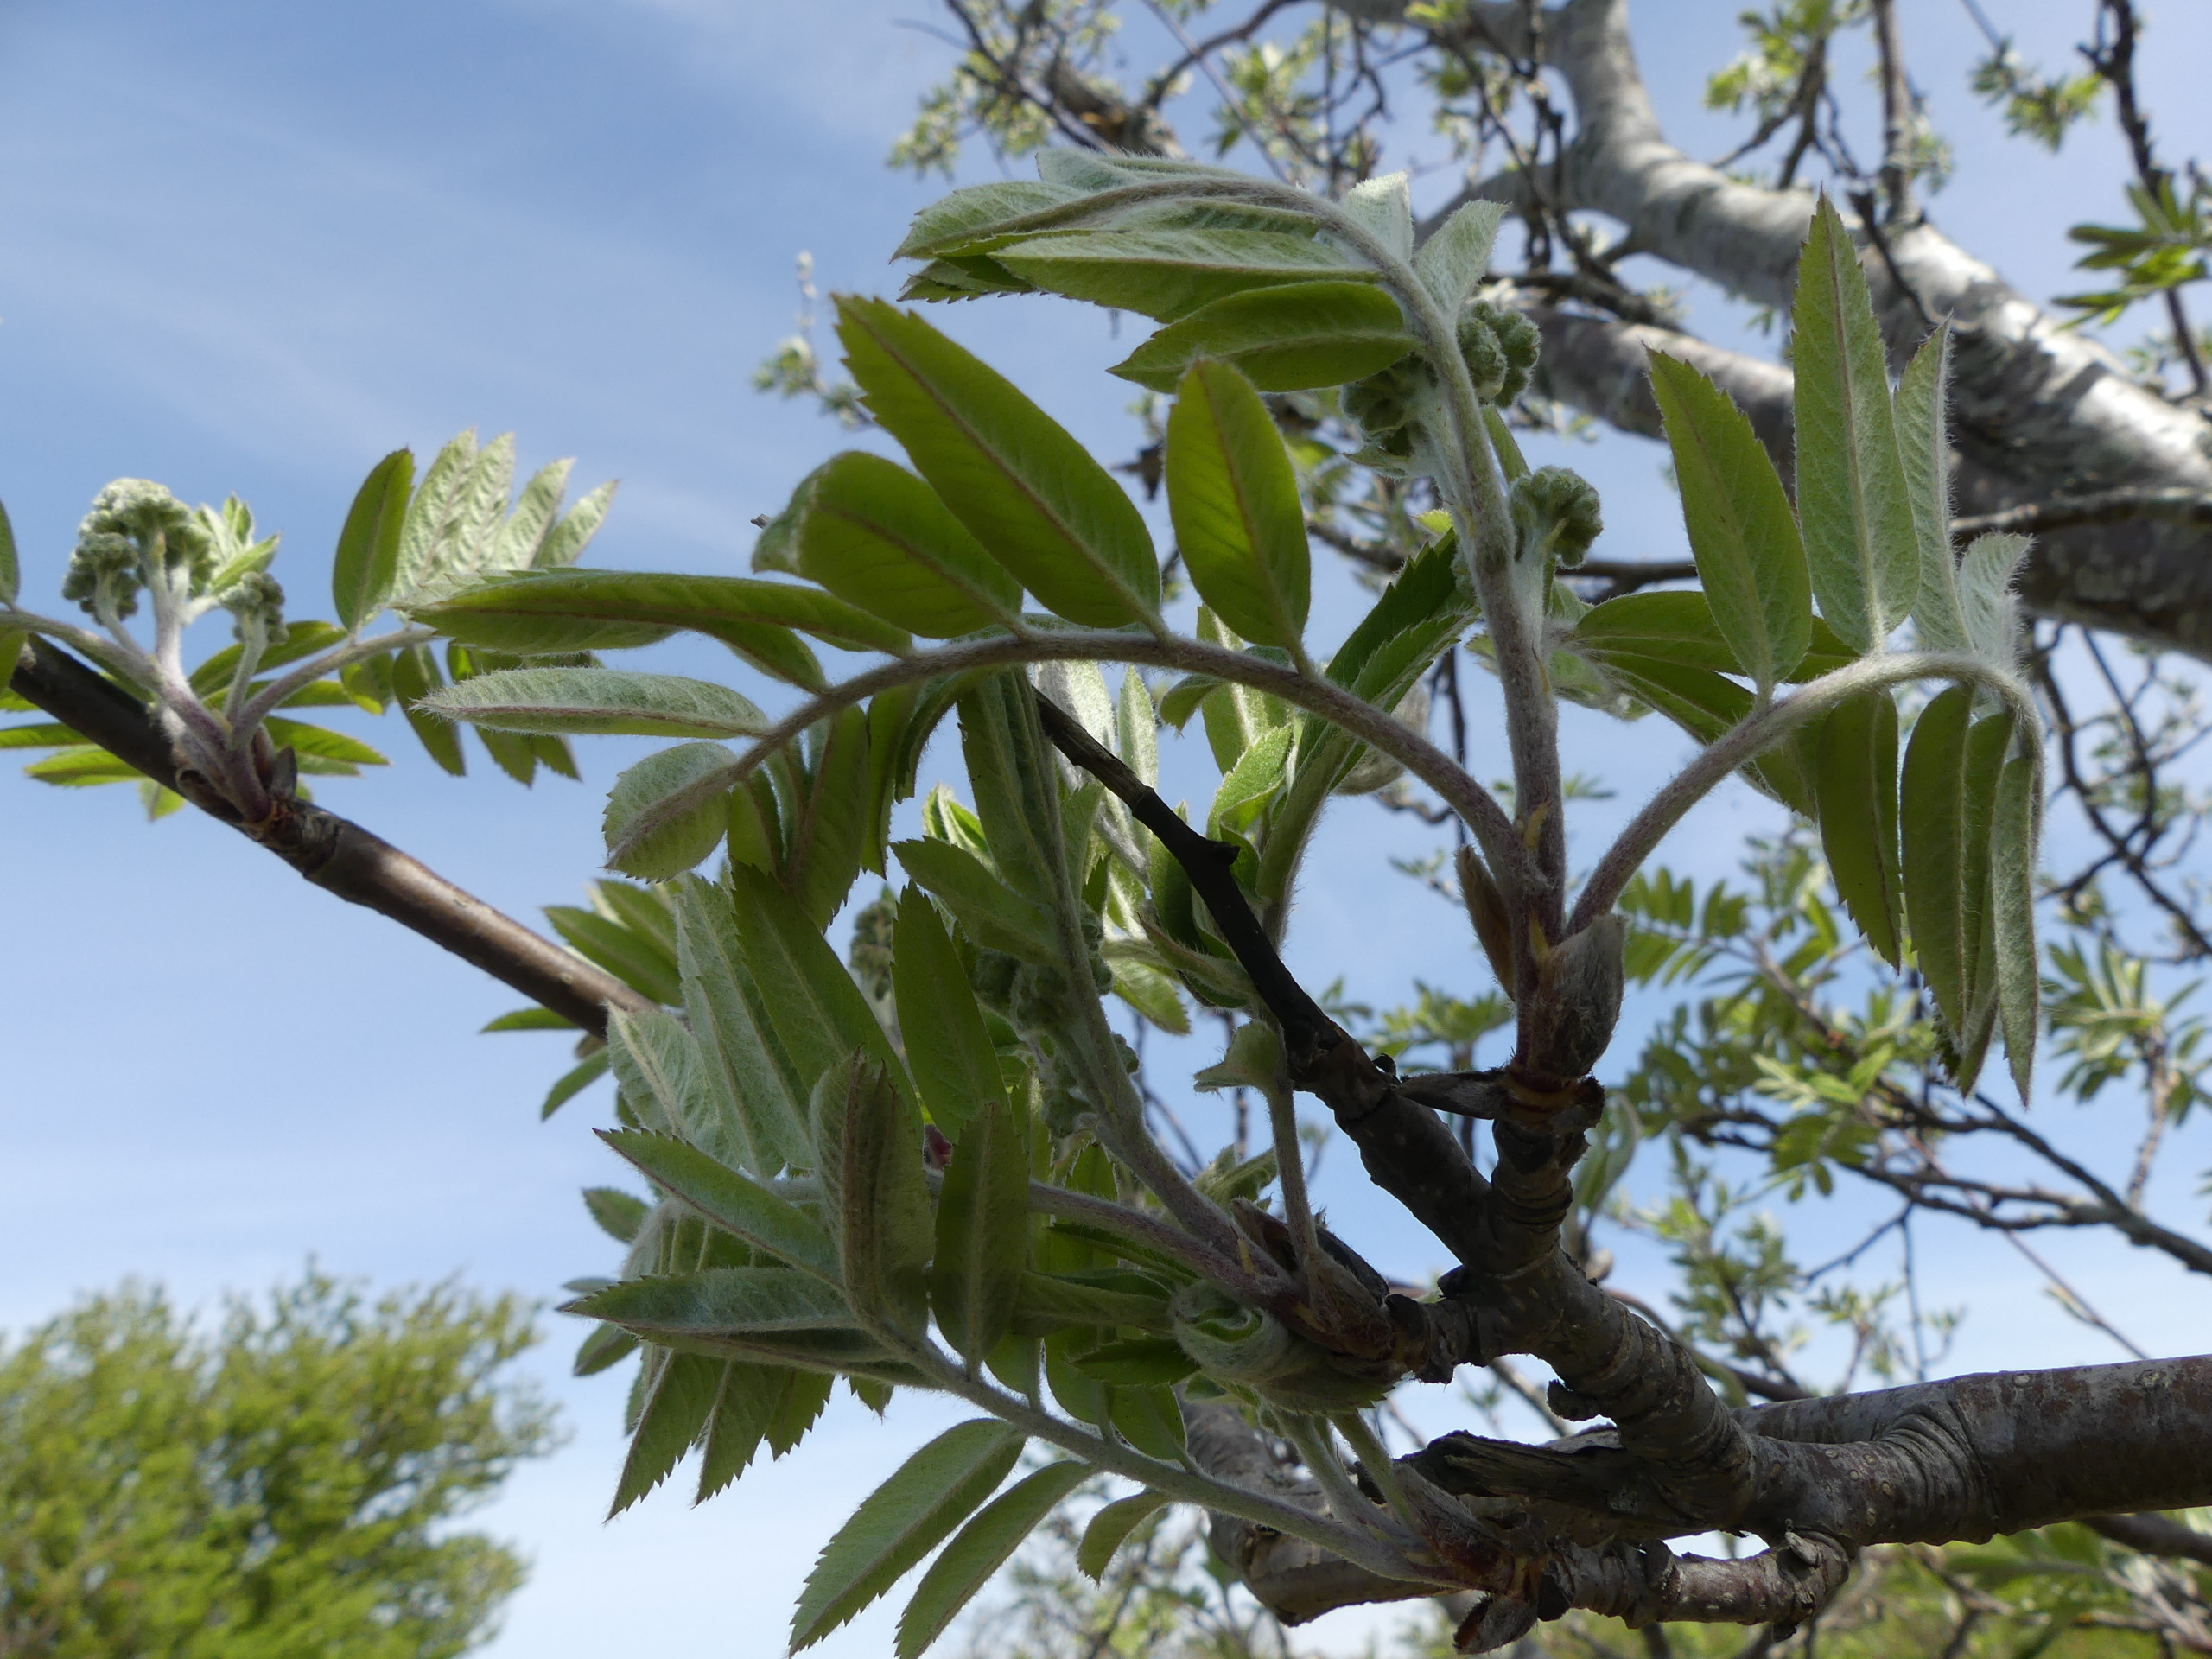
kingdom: Plantae
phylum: Tracheophyta
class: Magnoliopsida
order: Rosales
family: Rosaceae
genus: Sorbus
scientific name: Sorbus aucuparia
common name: Almindelig røn
